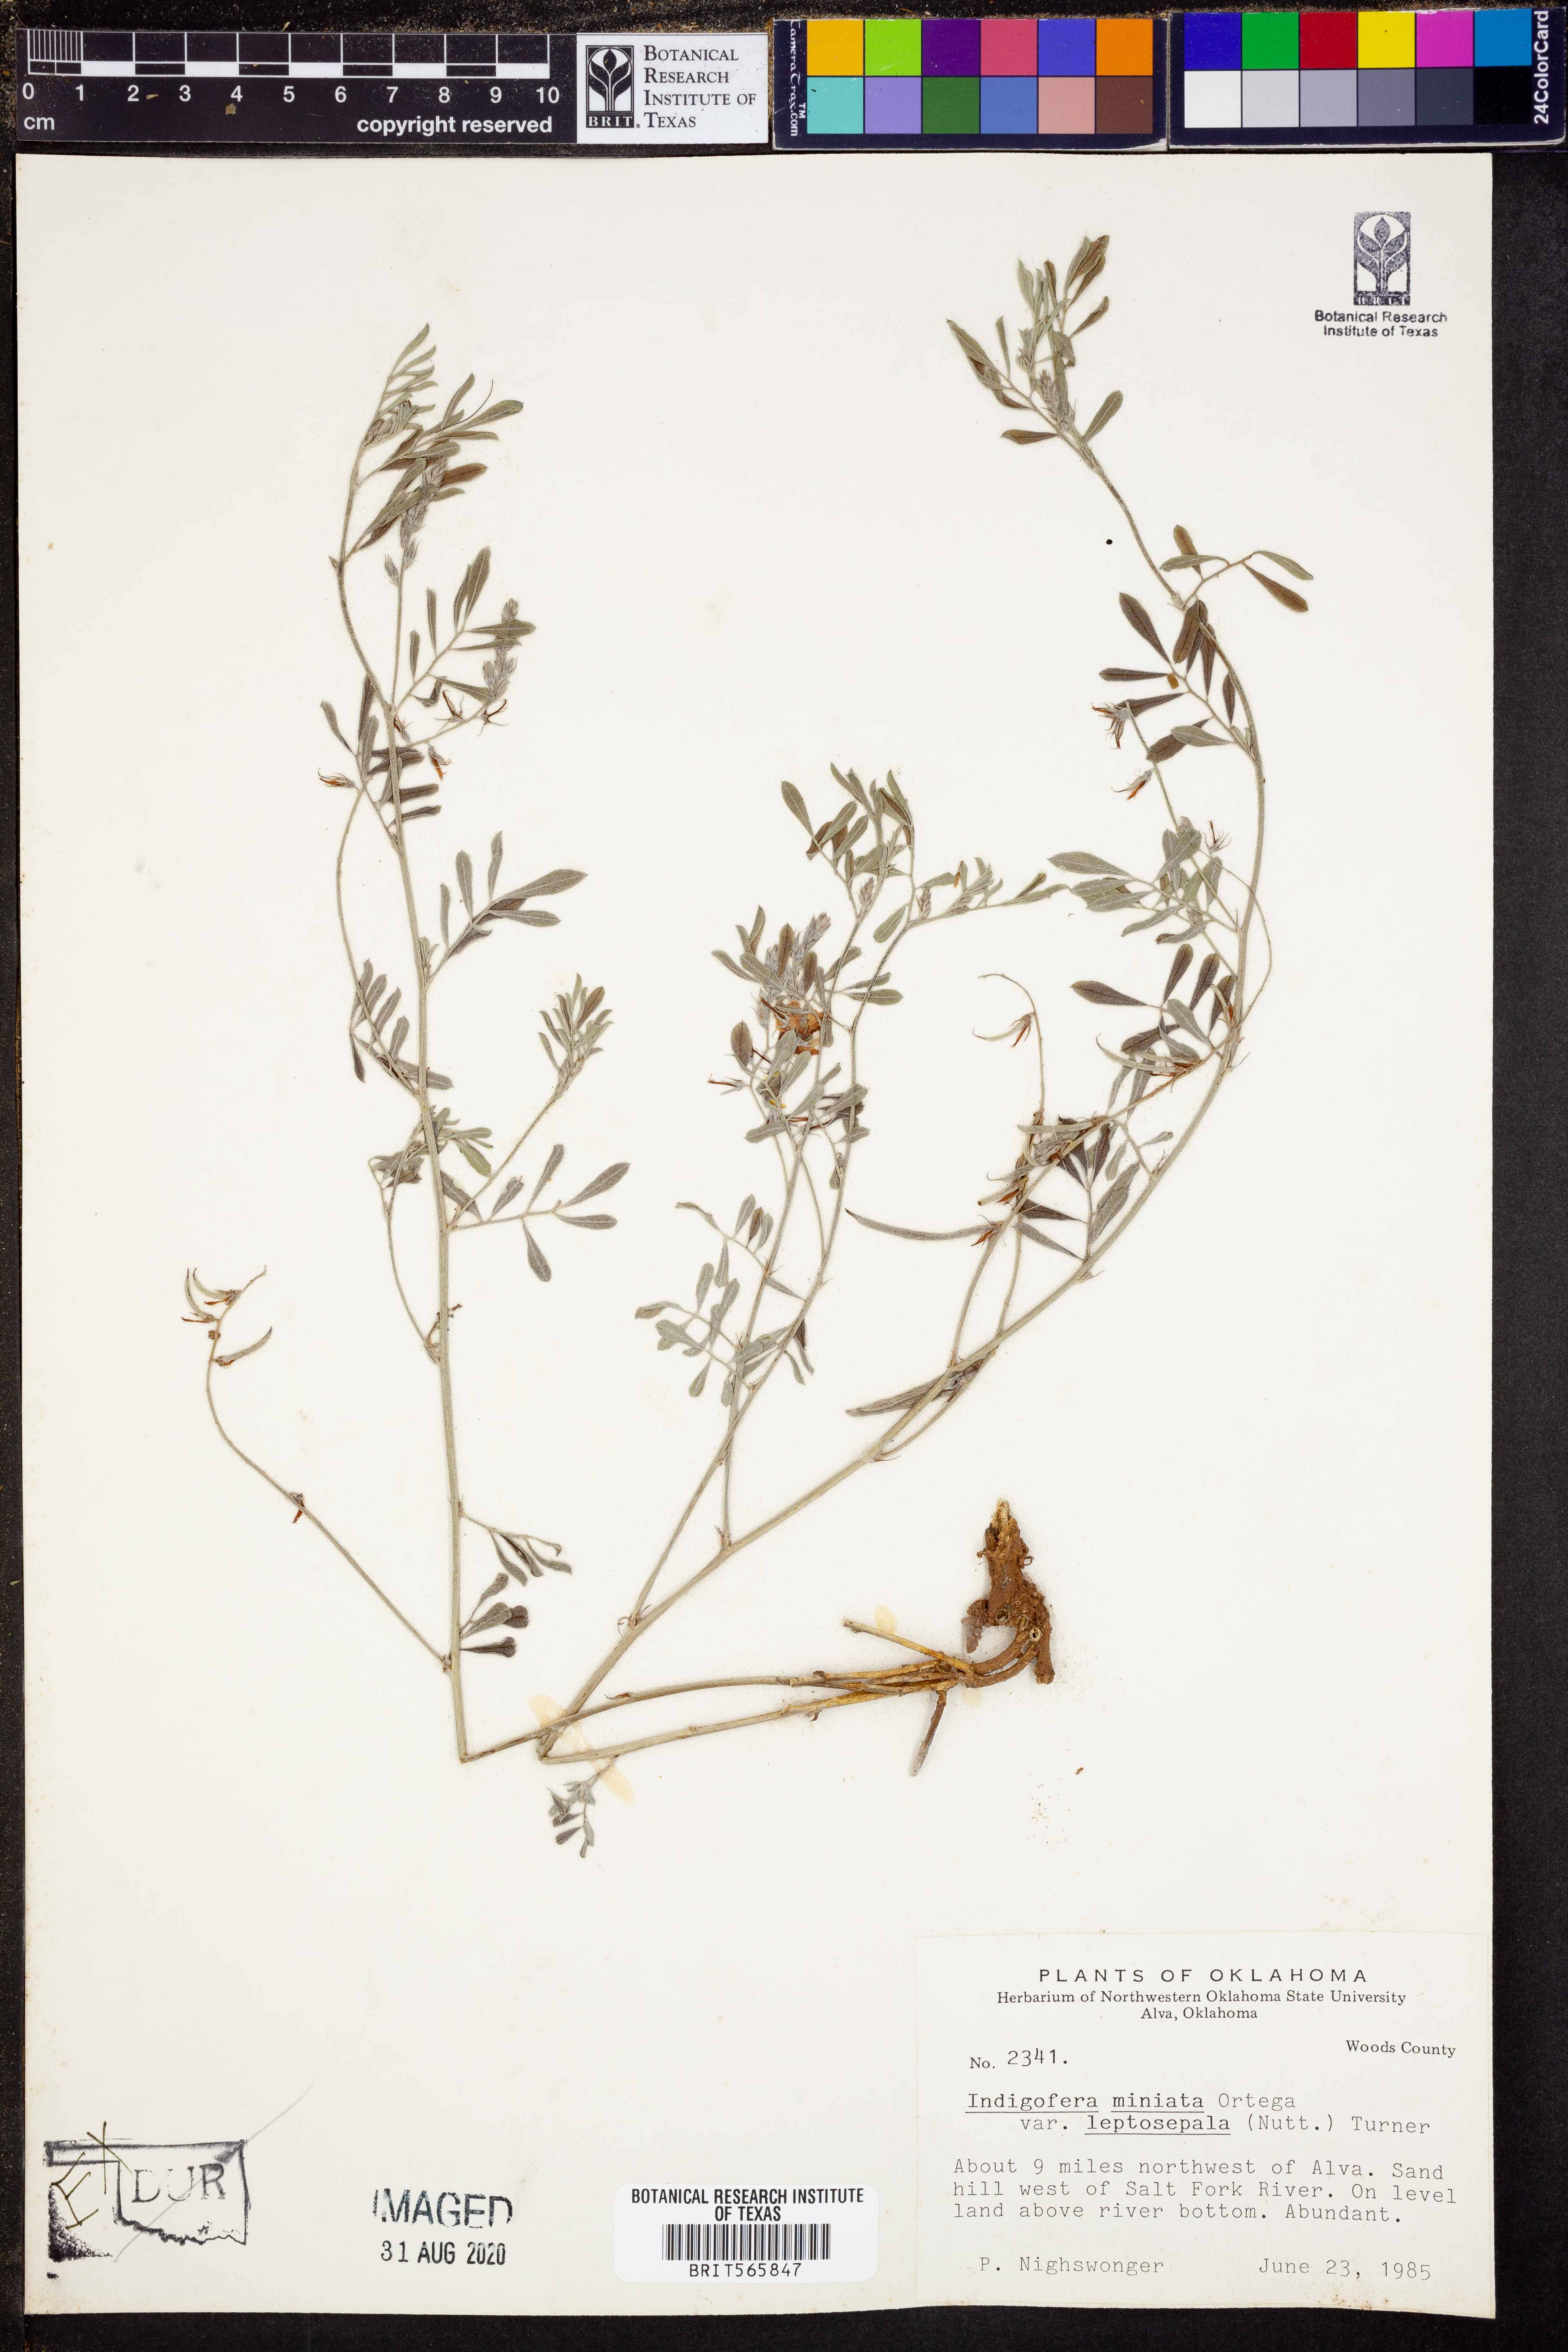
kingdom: Plantae
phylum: Tracheophyta
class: Magnoliopsida
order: Fabales
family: Fabaceae
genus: Indigofera
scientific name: Indigofera miniata
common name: Coast indigo
